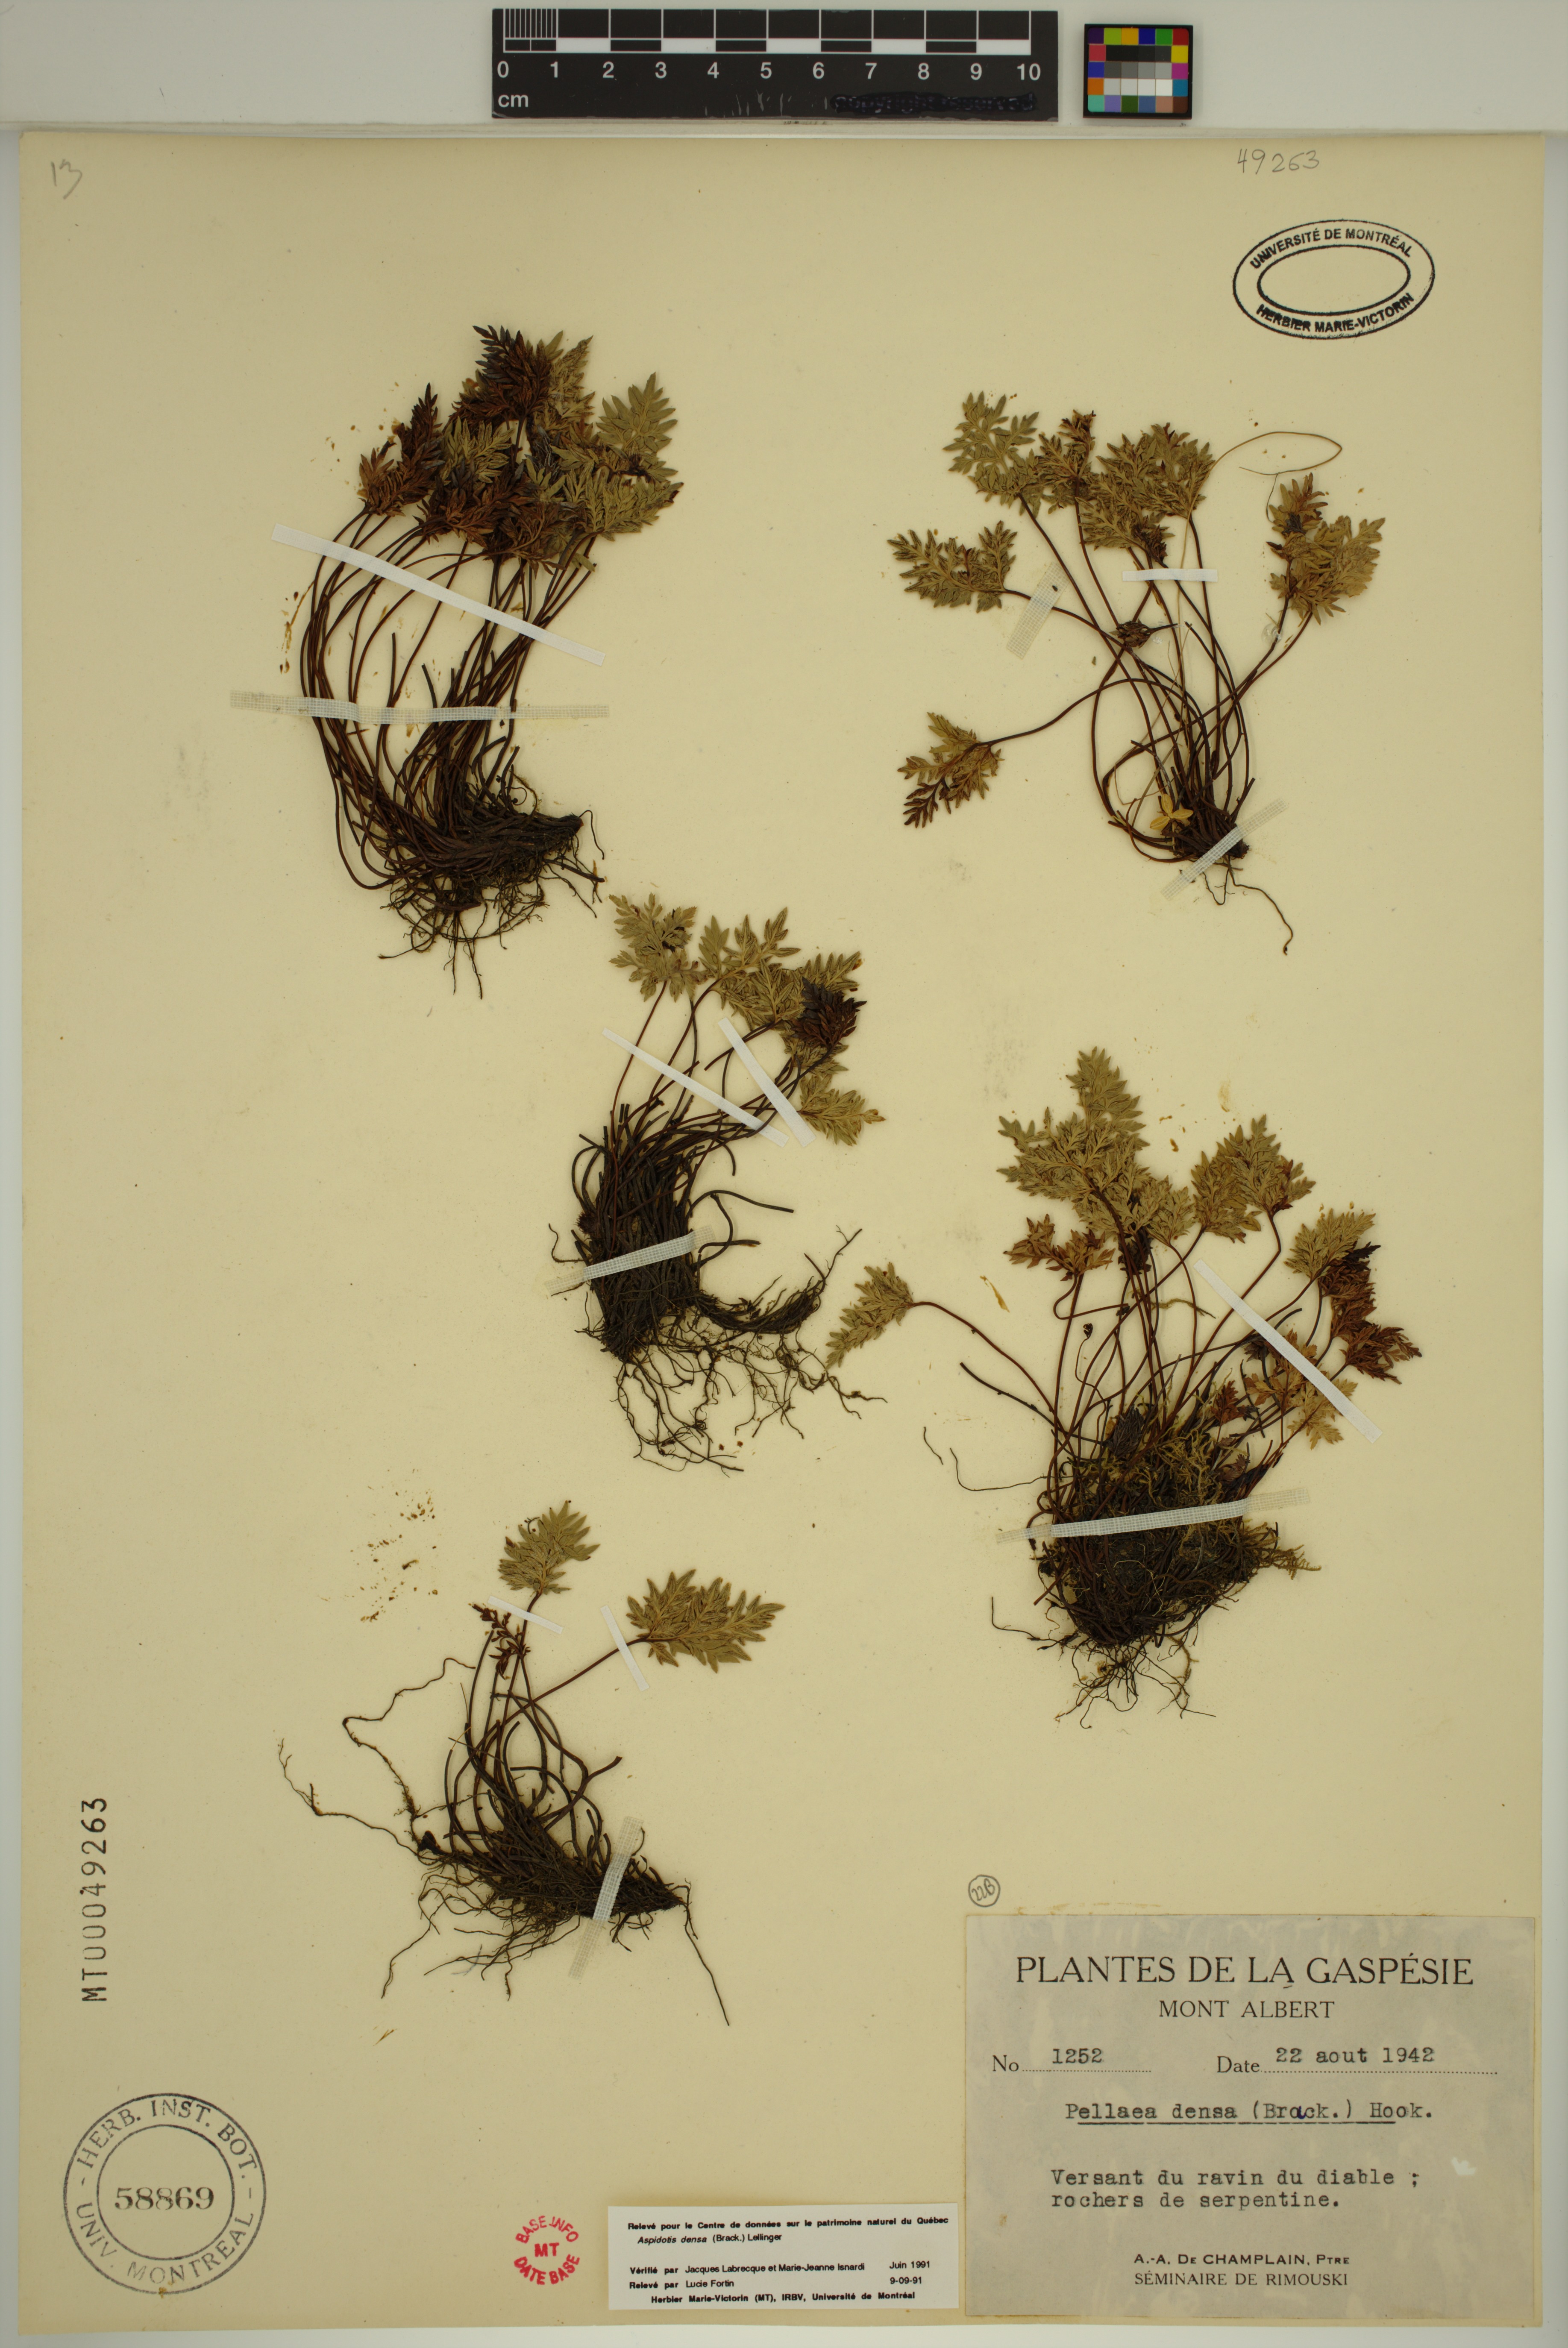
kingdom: Plantae
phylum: Tracheophyta
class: Polypodiopsida
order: Polypodiales
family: Pteridaceae
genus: Aspidotis
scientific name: Aspidotis densa
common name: Indian's dream
